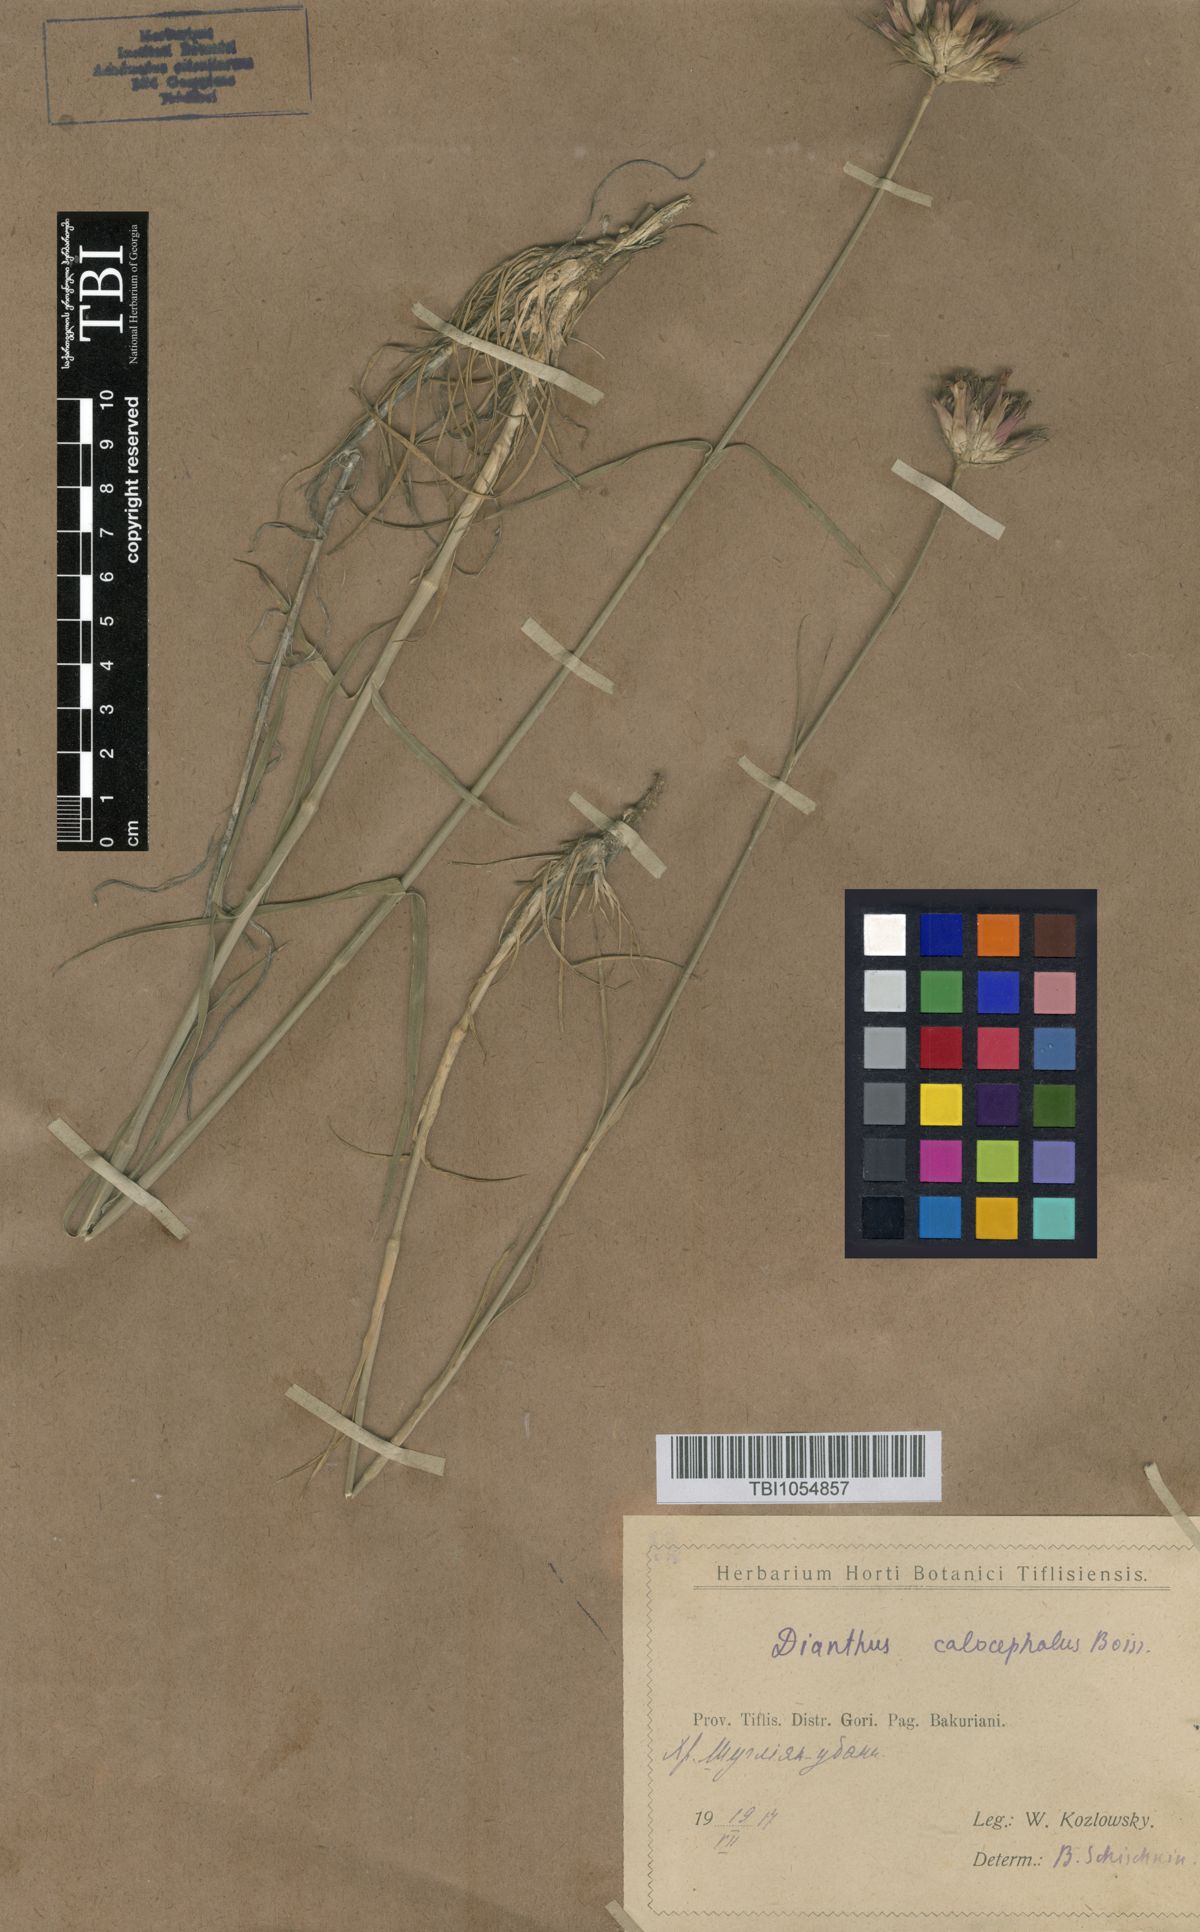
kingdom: Plantae
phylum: Tracheophyta
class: Magnoliopsida
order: Caryophyllales
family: Caryophyllaceae
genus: Dianthus
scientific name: Dianthus cruentus
